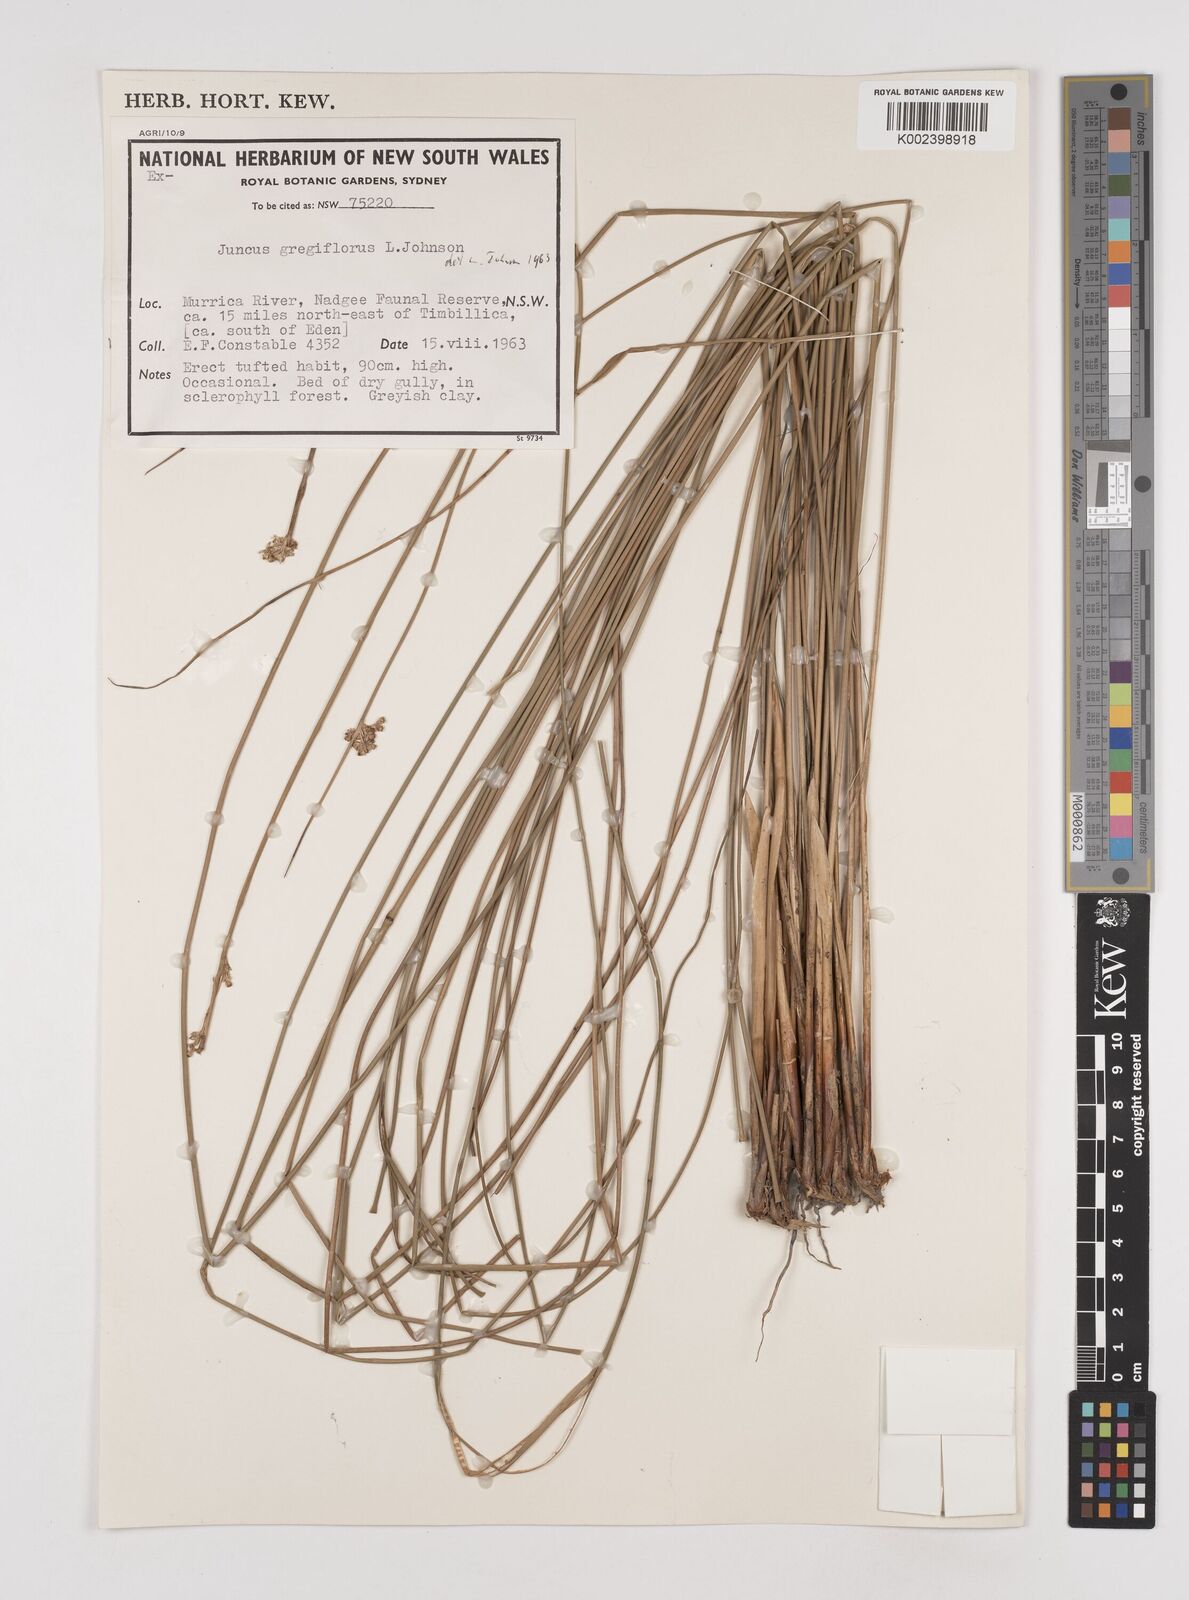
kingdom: Plantae
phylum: Tracheophyta
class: Liliopsida
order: Poales
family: Juncaceae
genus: Juncus
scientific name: Juncus gregiflorus
